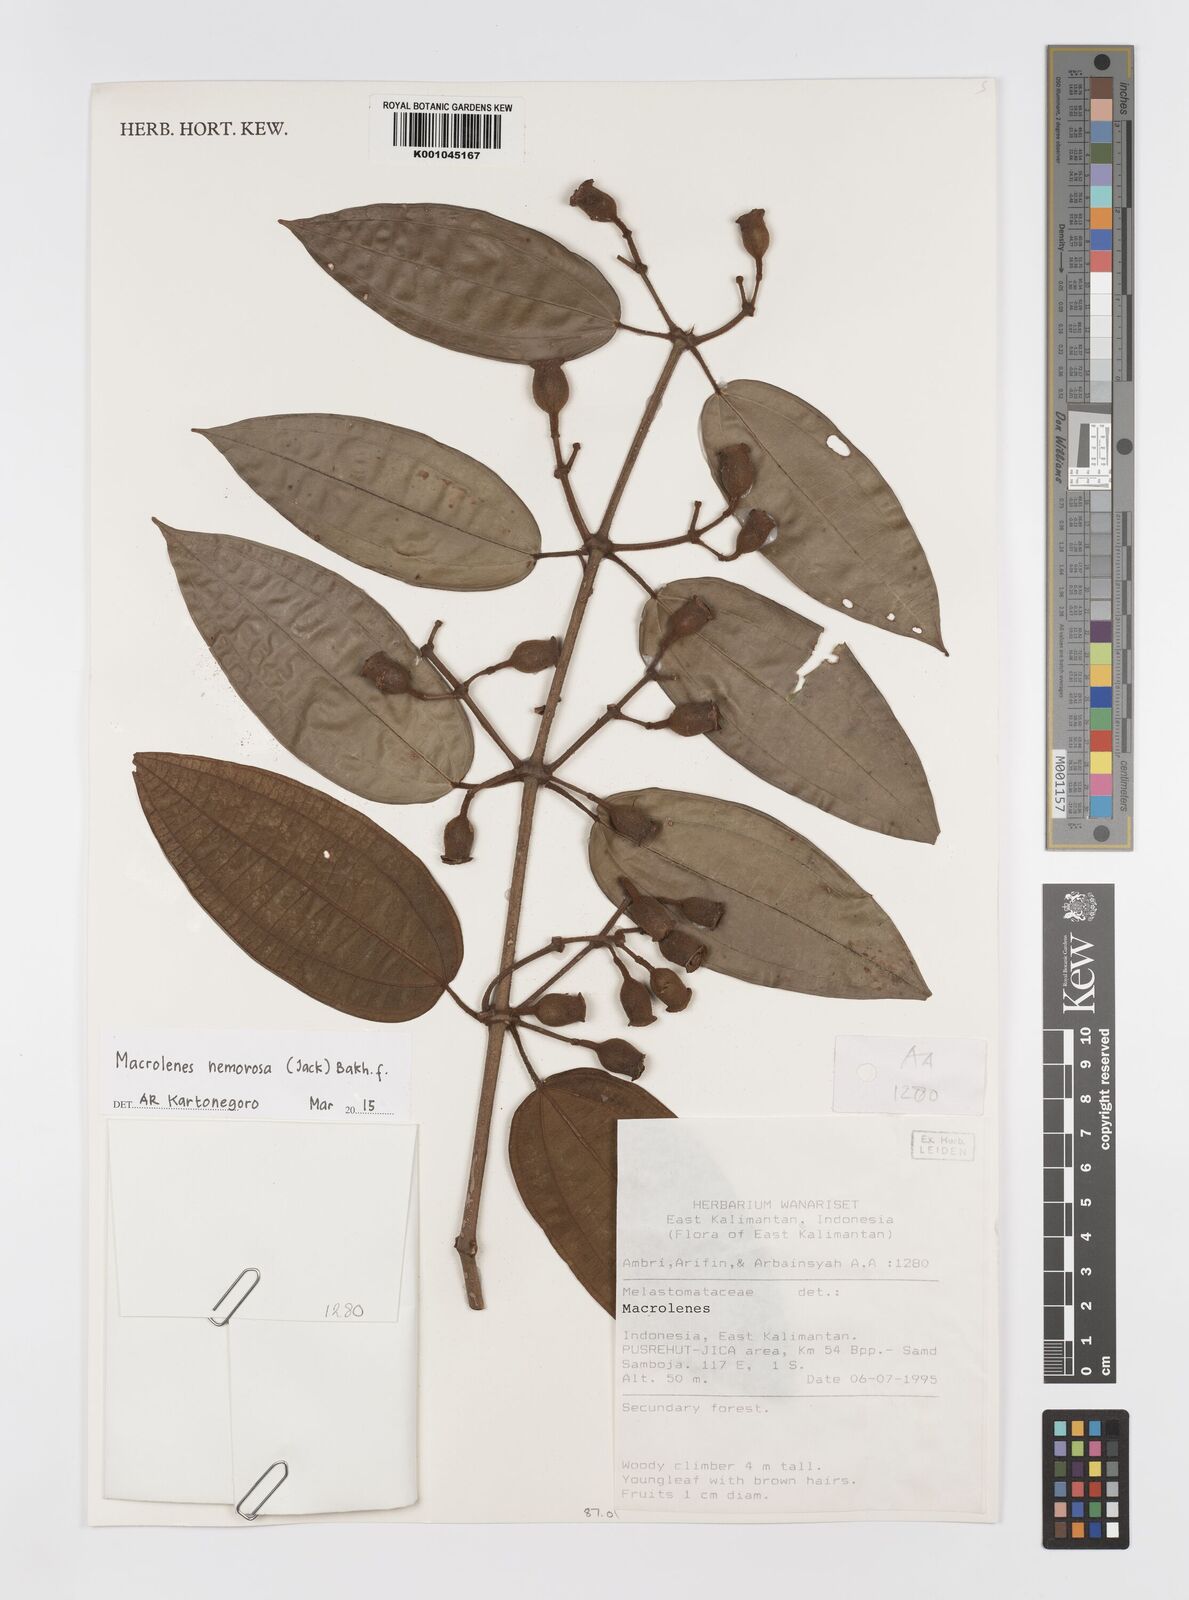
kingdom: Plantae
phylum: Tracheophyta
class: Magnoliopsida
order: Myrtales
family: Melastomataceae
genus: Macrolenes
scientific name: Macrolenes nemorosa
